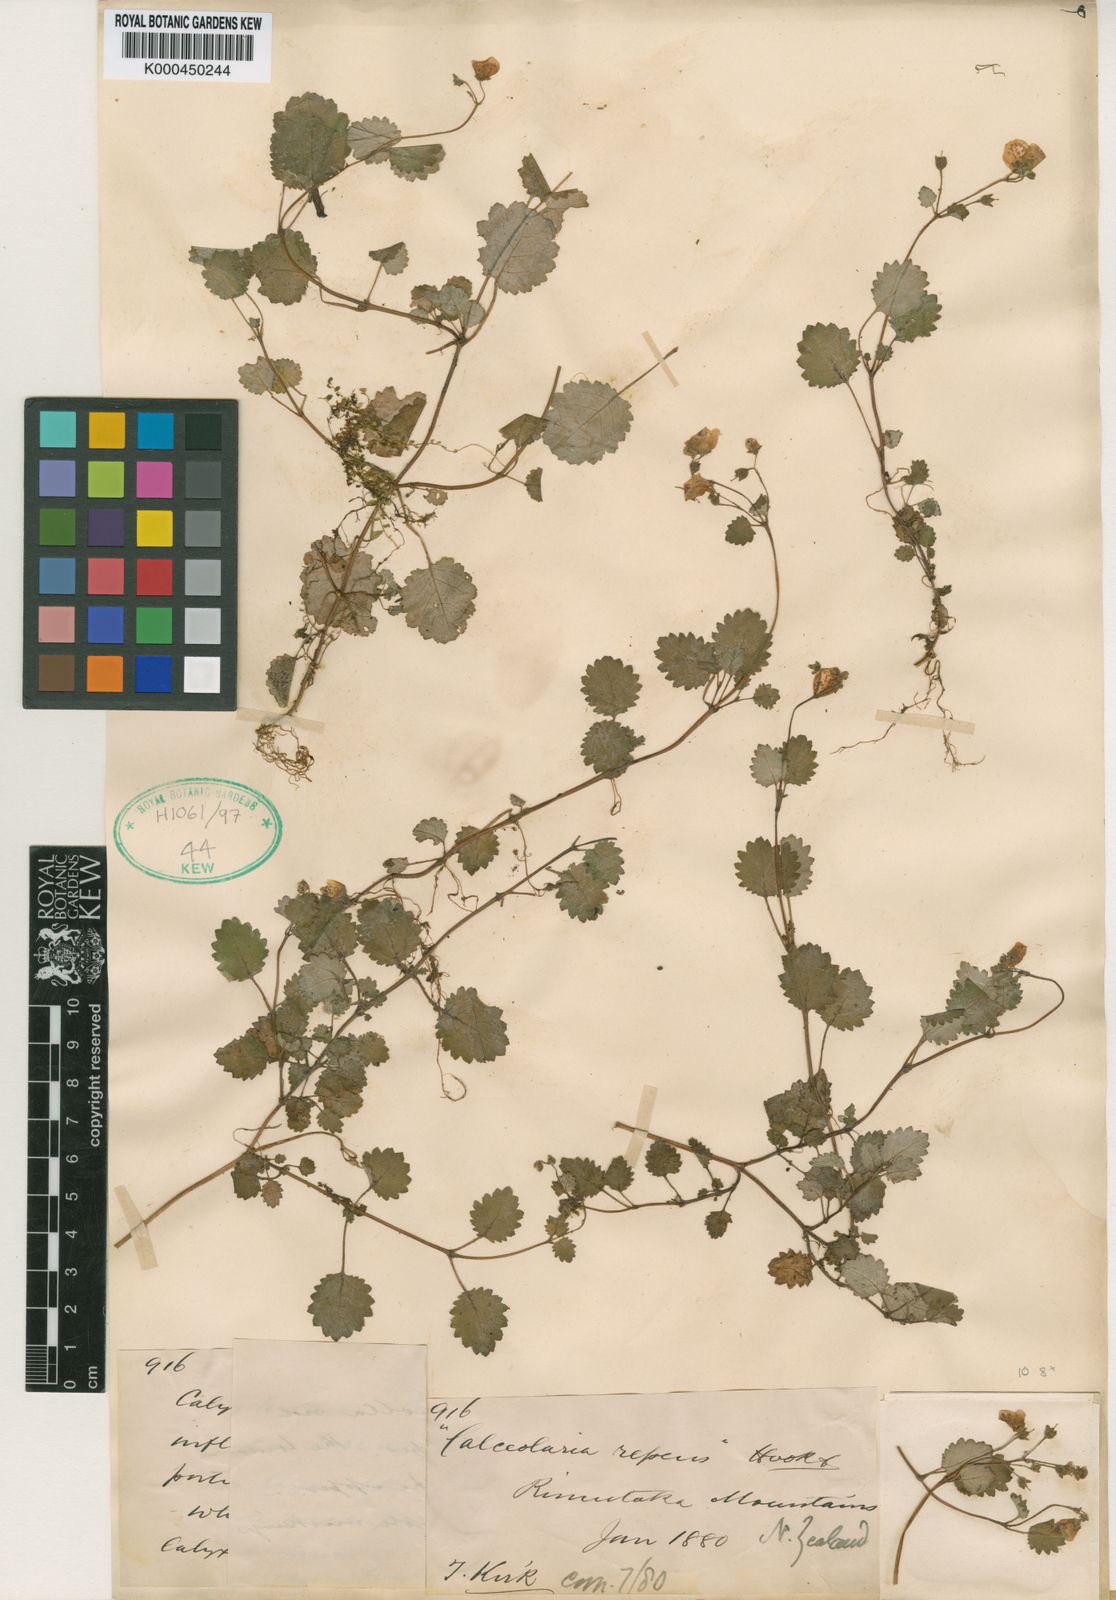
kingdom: Plantae
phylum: Tracheophyta
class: Magnoliopsida
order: Lamiales
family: Calceolariaceae
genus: Jovellana
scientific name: Jovellana repens
